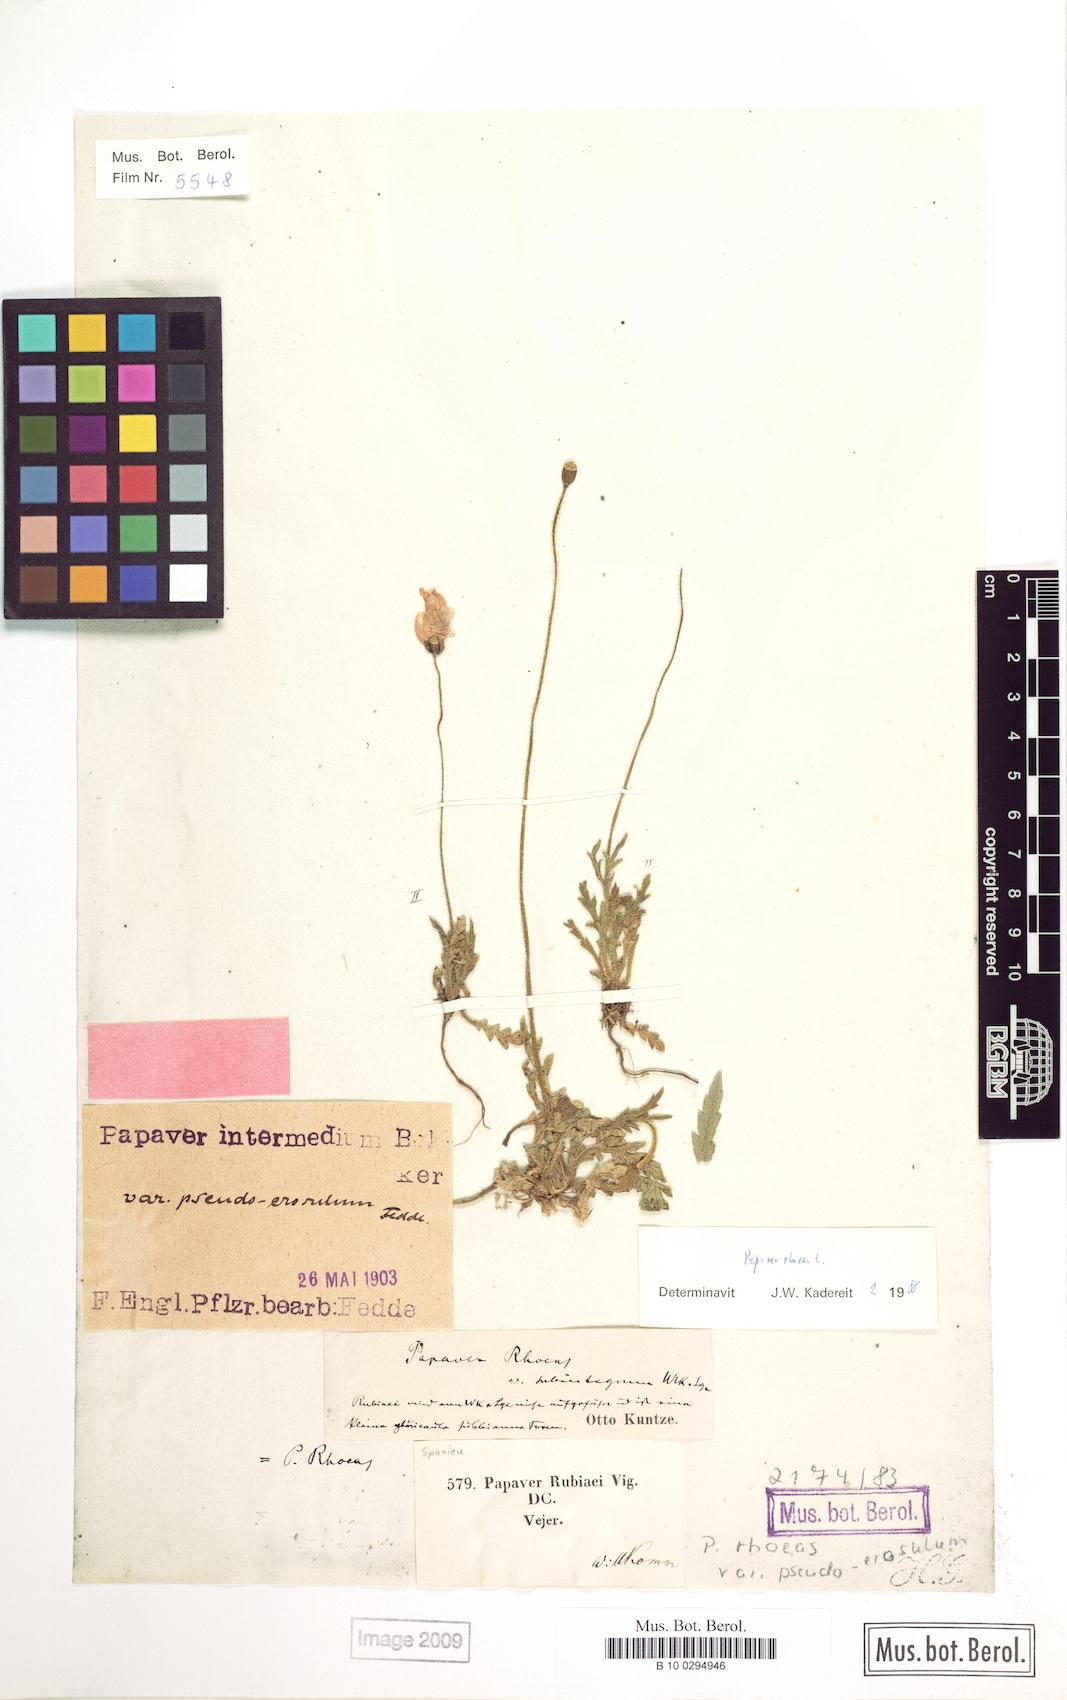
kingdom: Plantae
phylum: Tracheophyta
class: Magnoliopsida
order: Ranunculales
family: Papaveraceae
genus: Papaver
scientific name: Papaver rhoeas
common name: Corn poppy
